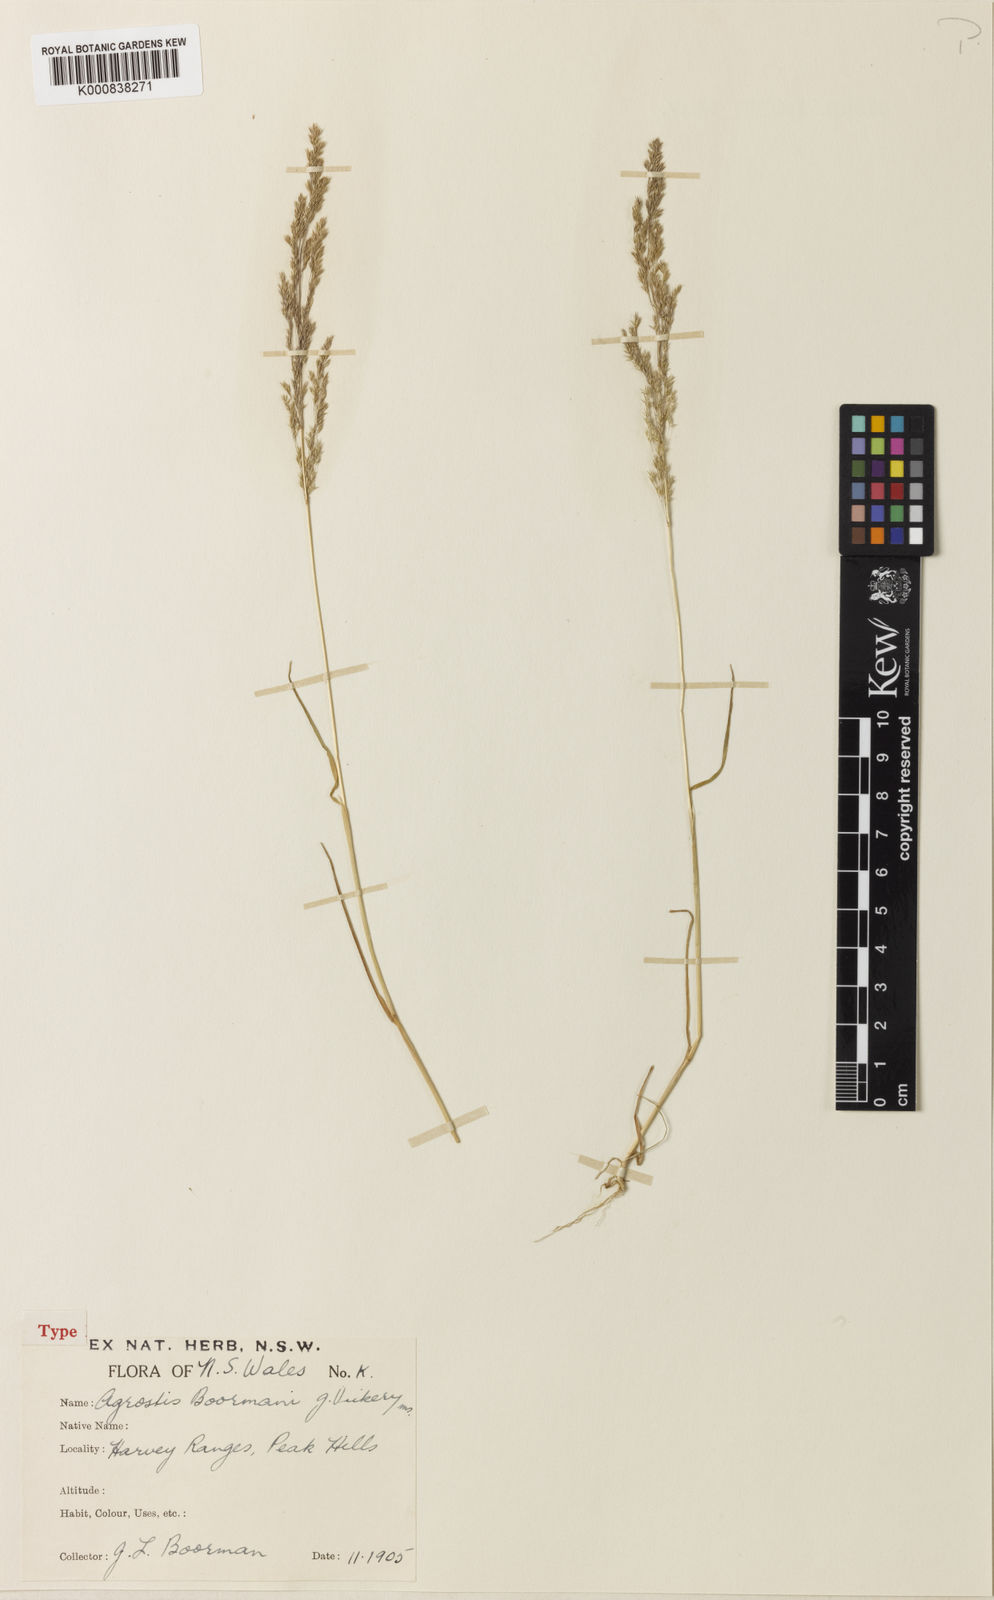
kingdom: Plantae
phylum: Tracheophyta
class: Liliopsida
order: Poales
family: Poaceae
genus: Agrostis
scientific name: Agrostis boormanii
